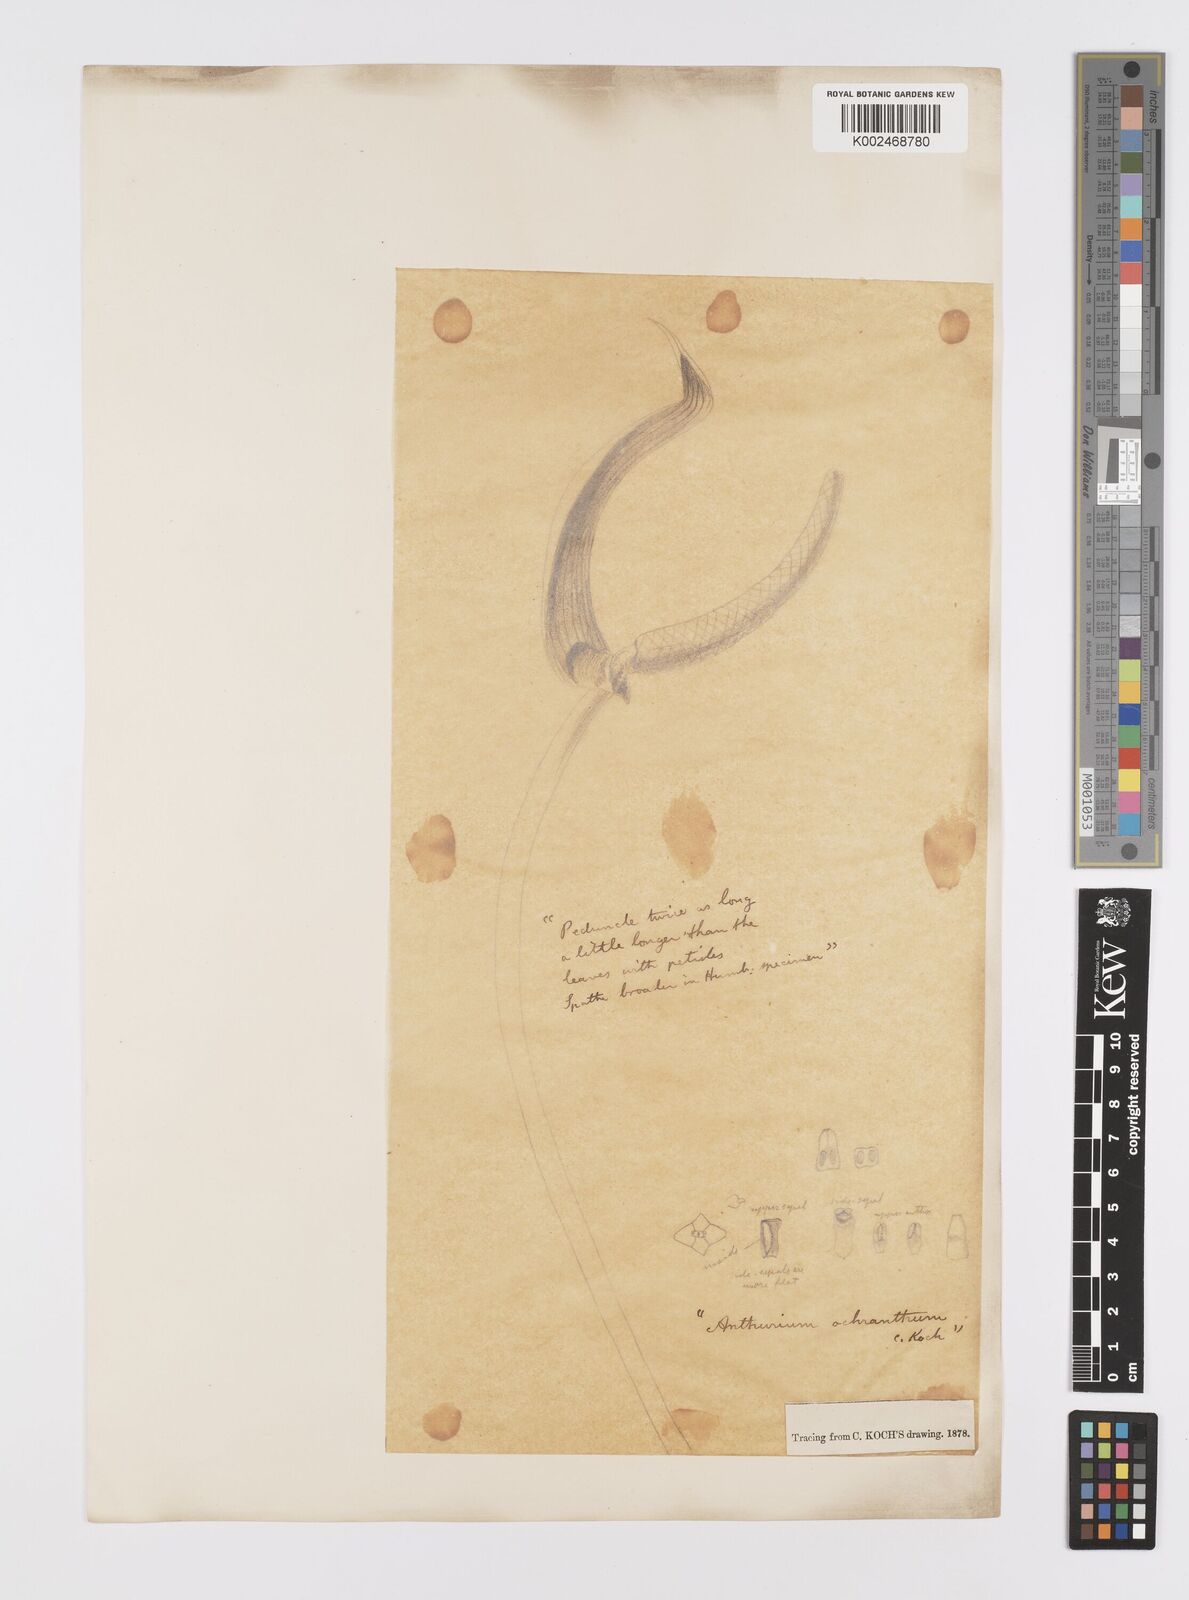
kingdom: Plantae
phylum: Tracheophyta
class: Liliopsida
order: Alismatales
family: Araceae
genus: Anthurium
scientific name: Anthurium ochranthum
